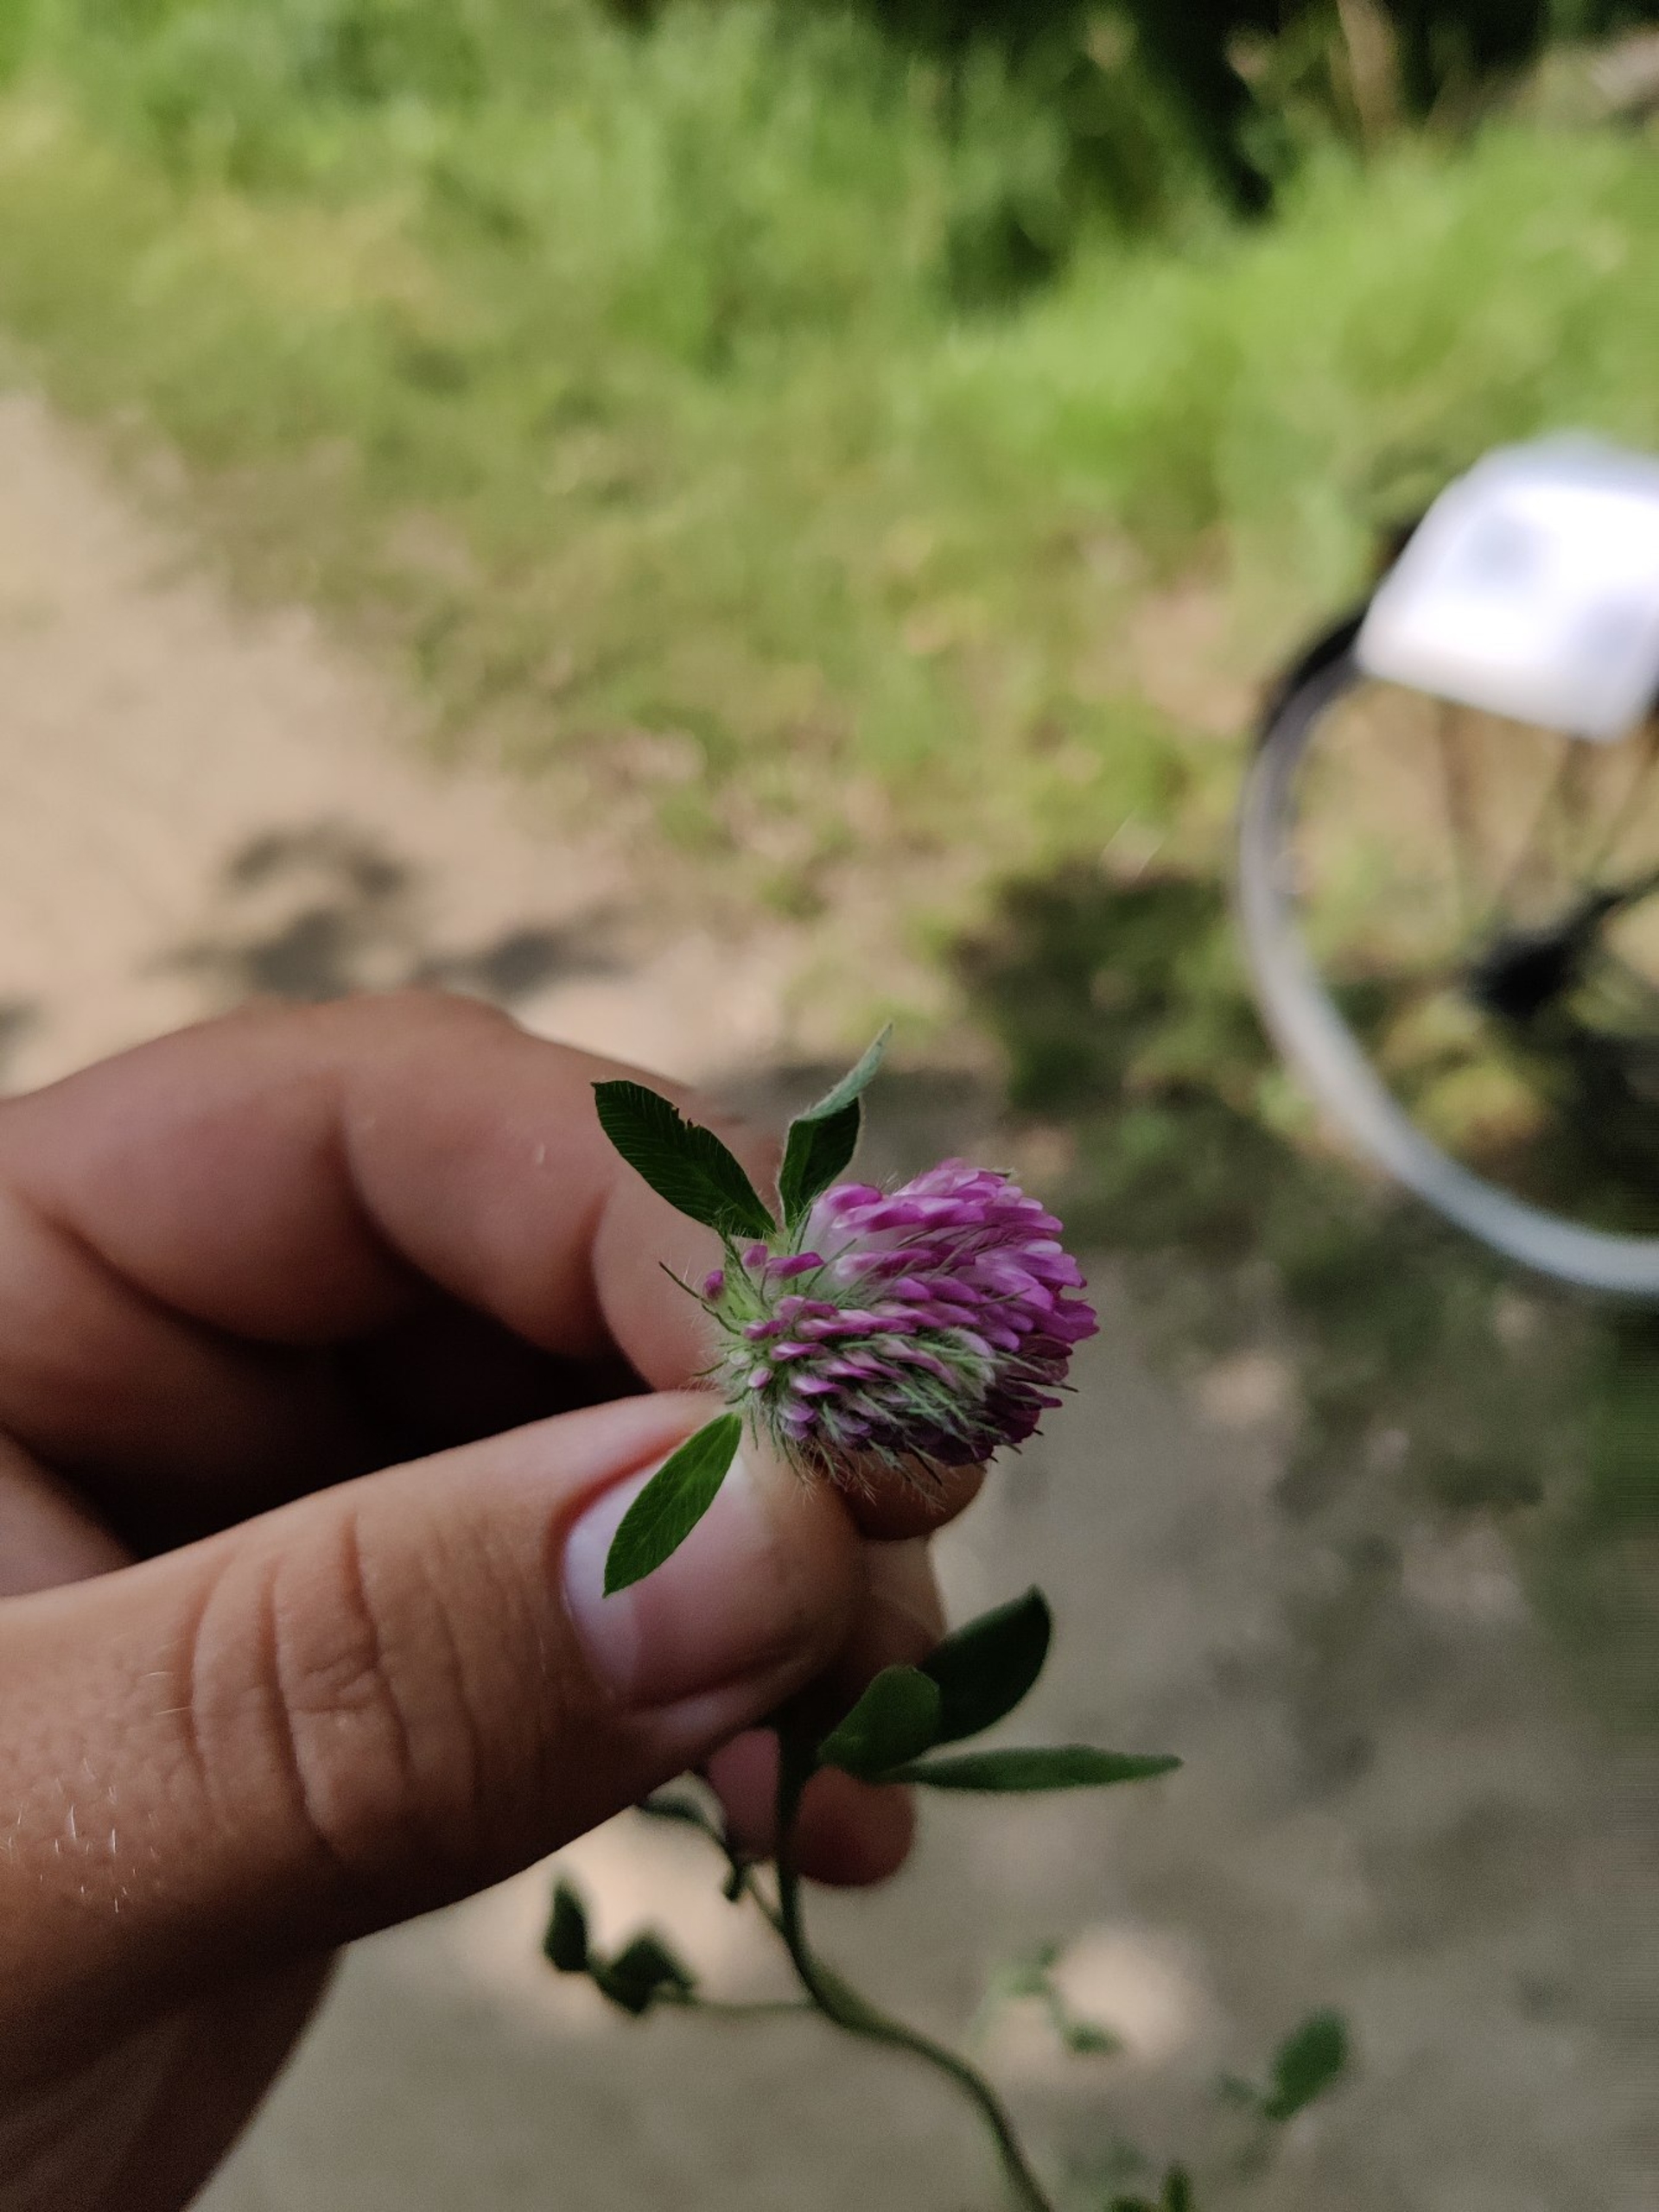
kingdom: Plantae
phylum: Tracheophyta
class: Magnoliopsida
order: Fabales
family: Fabaceae
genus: Trifolium
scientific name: Trifolium pratense
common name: Rød-kløver
